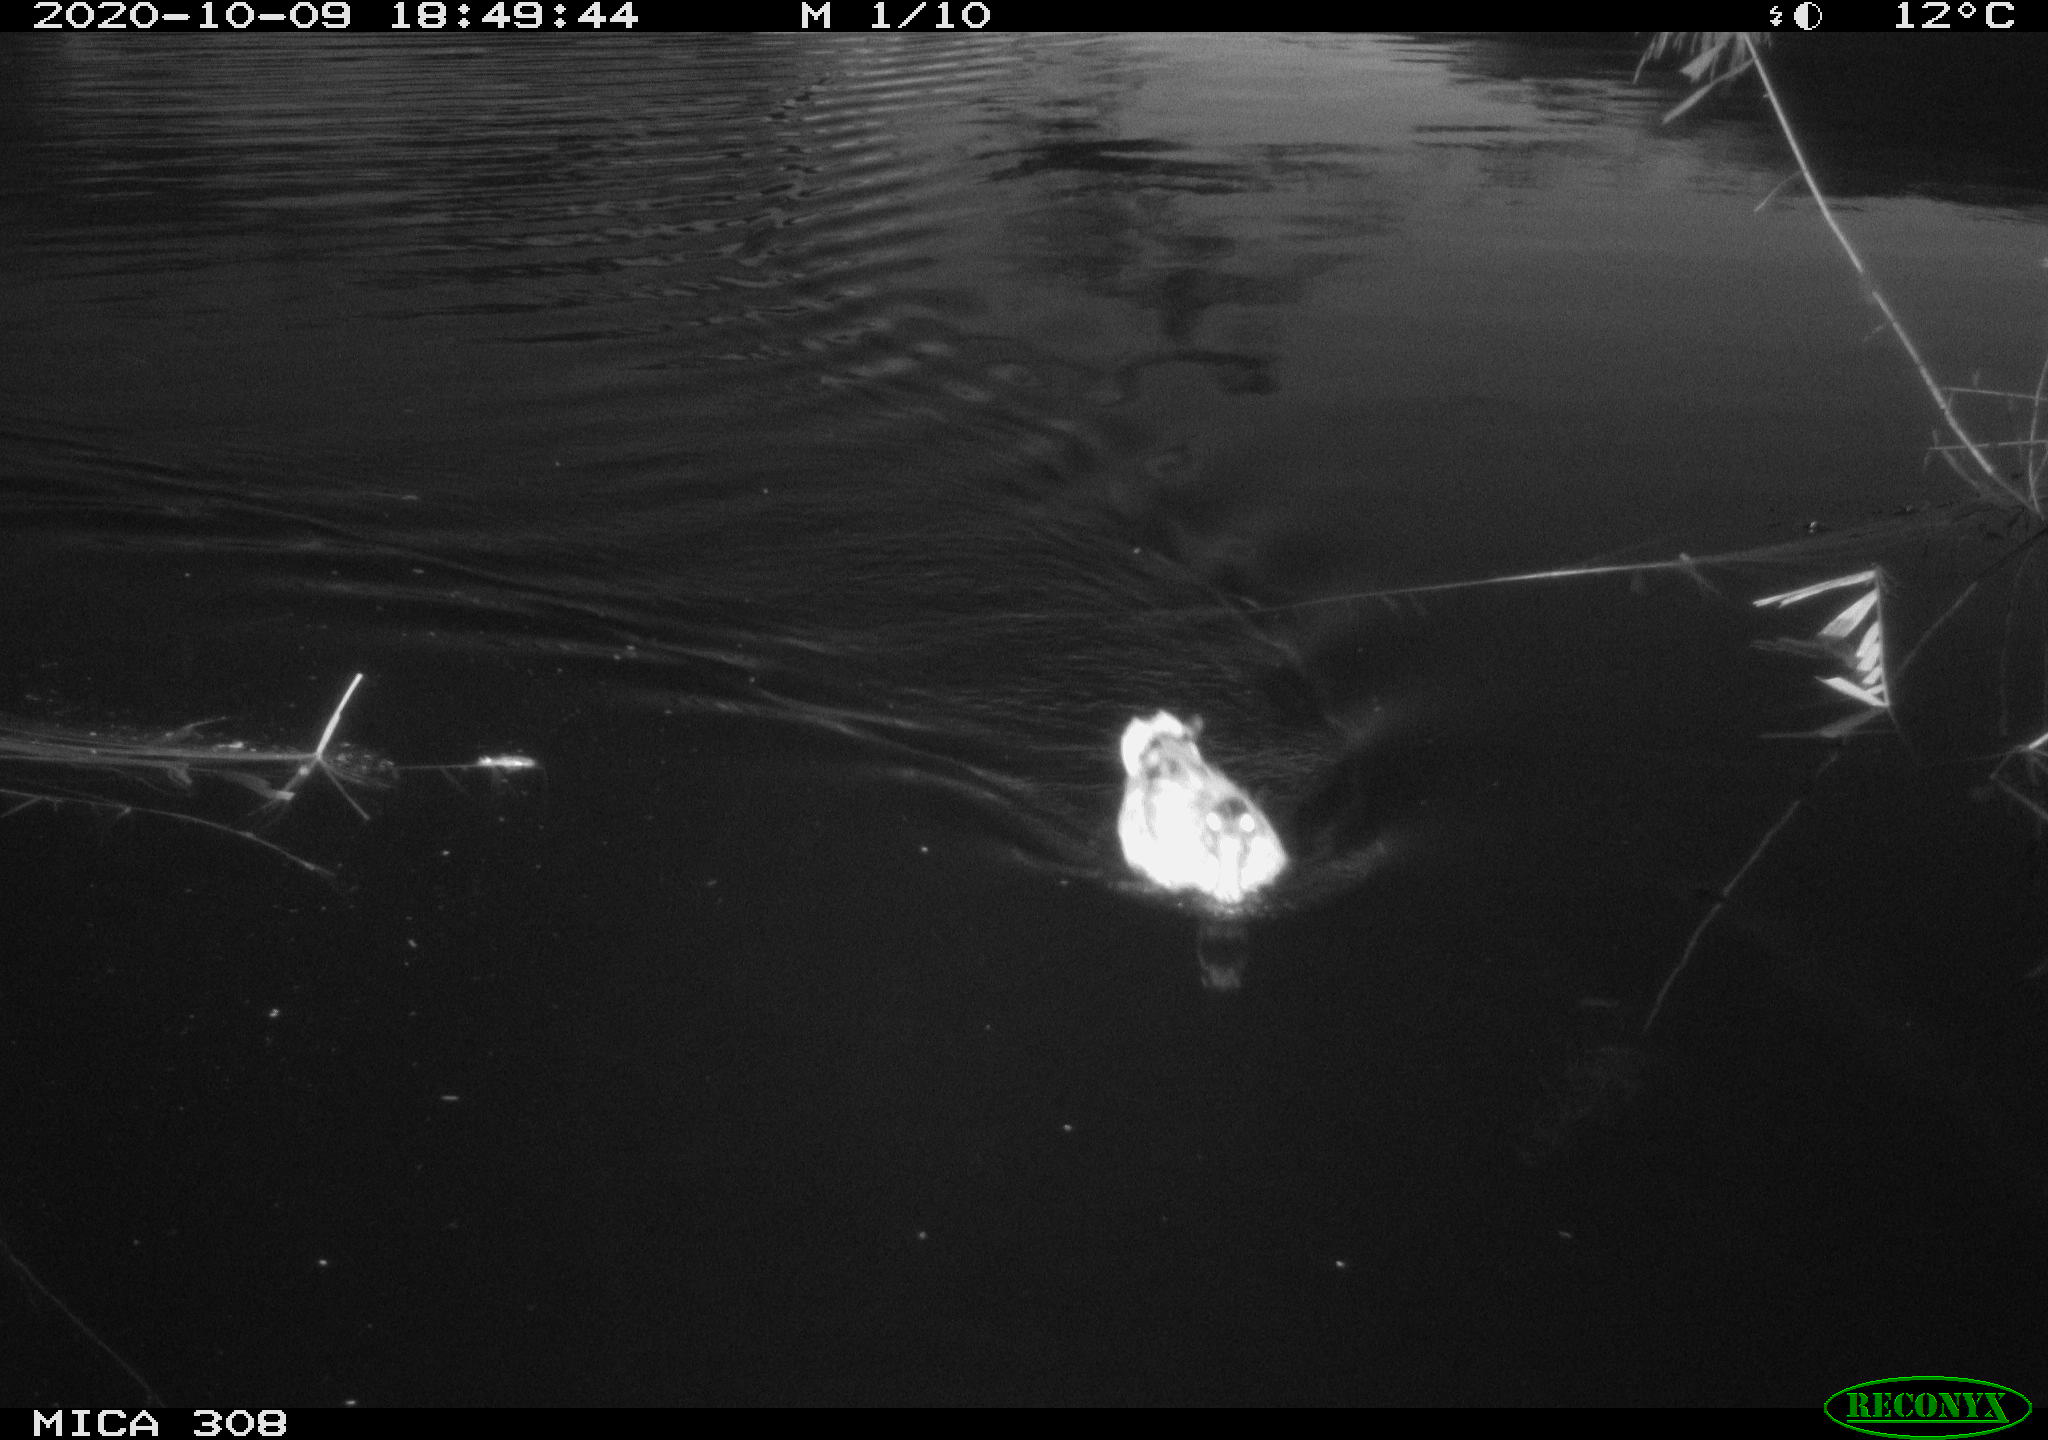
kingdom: Animalia
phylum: Chordata
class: Aves
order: Anseriformes
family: Anatidae
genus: Anas
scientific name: Anas platyrhynchos
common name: Mallard
